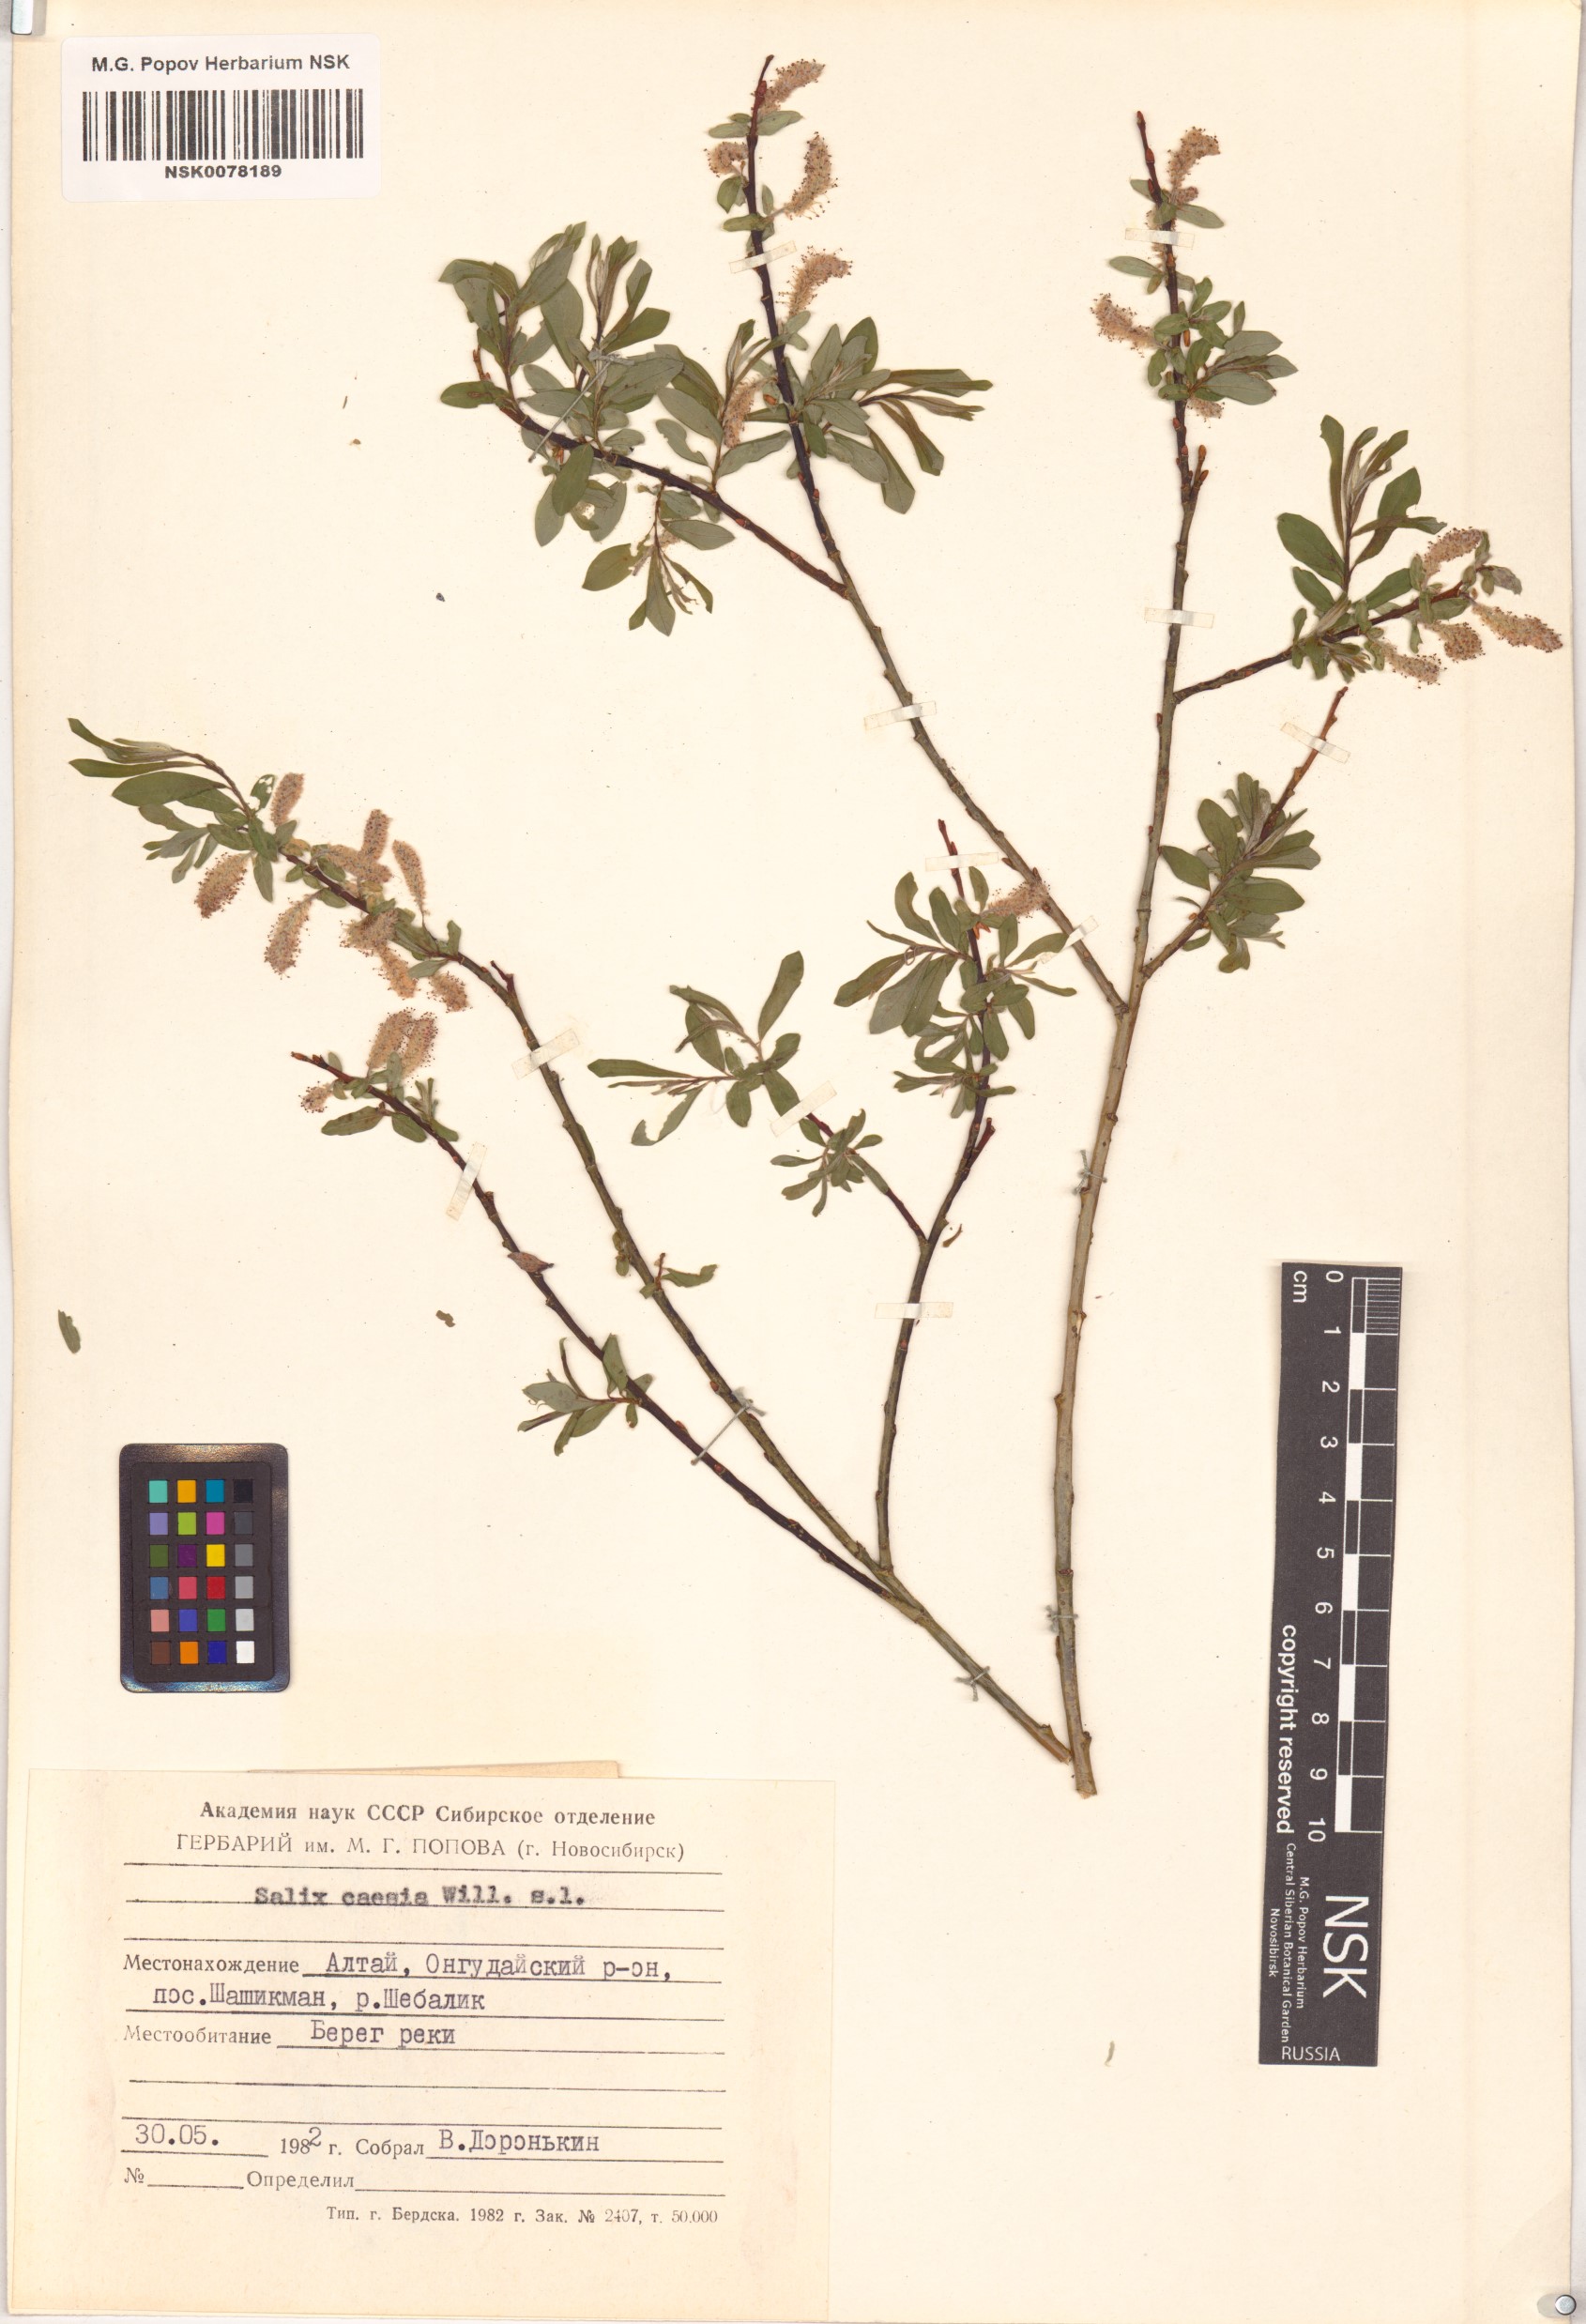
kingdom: Plantae
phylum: Tracheophyta
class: Magnoliopsida
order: Malpighiales
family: Salicaceae
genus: Salix
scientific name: Salix caesia
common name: Blue willow
